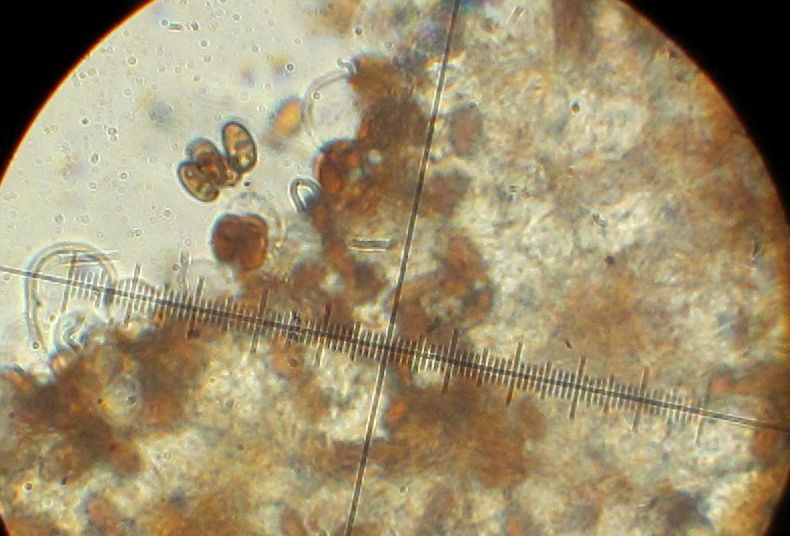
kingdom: Fungi
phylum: Basidiomycota
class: Agaricomycetes
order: Agaricales
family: Psathyrellaceae
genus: Psathyrella
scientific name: Psathyrella spadiceogrisea
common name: gråbrun mørkhat
